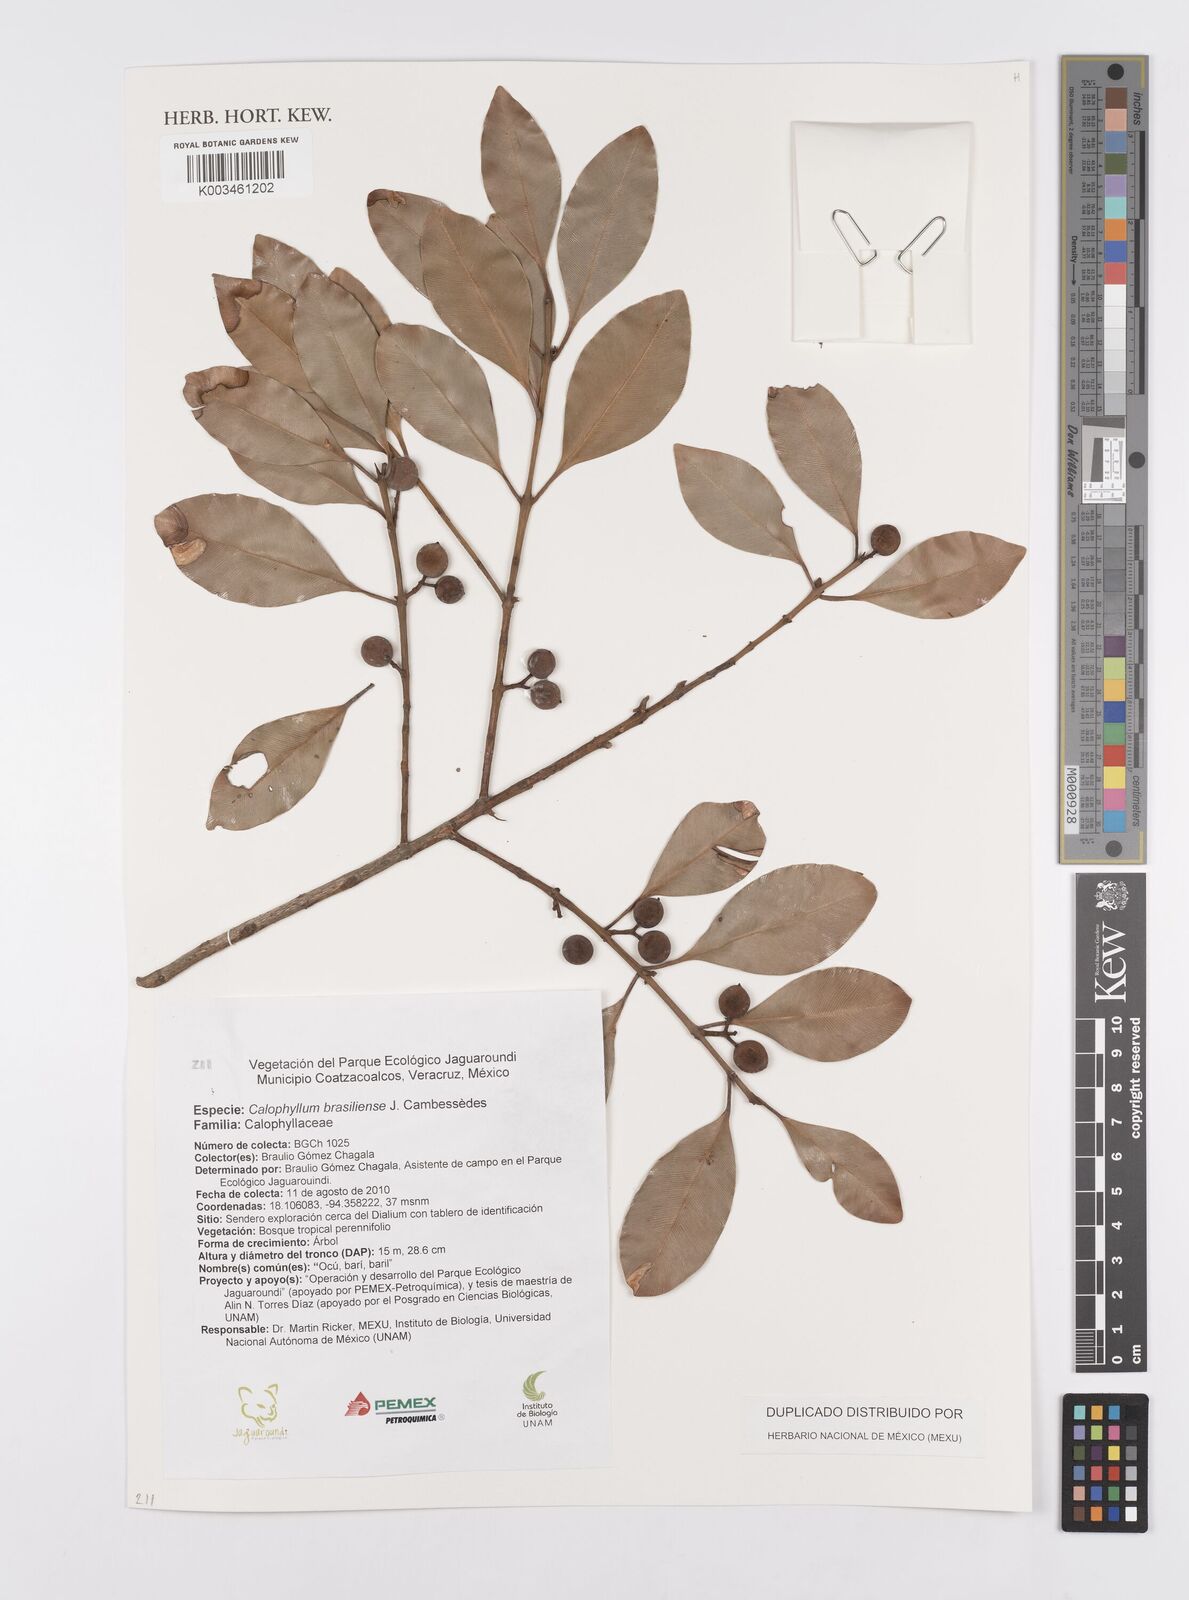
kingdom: Plantae
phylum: Tracheophyta
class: Magnoliopsida
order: Malpighiales
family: Calophyllaceae
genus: Calophyllum
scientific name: Calophyllum brasiliense
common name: Santa maria
